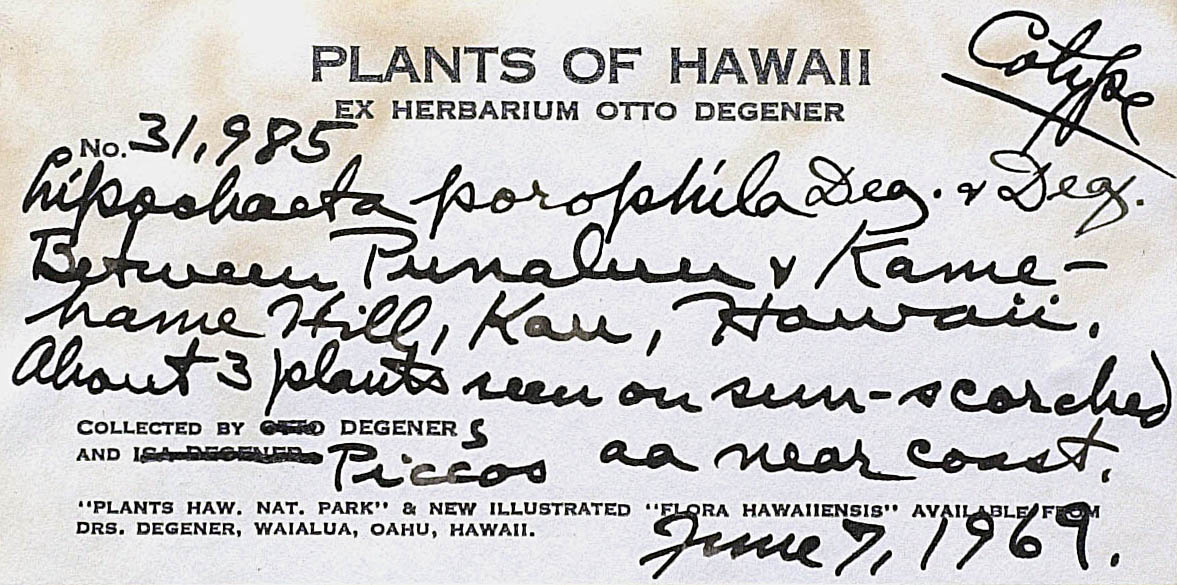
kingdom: Plantae
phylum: Tracheophyta
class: Magnoliopsida
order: Asterales
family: Asteraceae
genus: Lipochaeta
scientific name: Lipochaeta integrifolia
